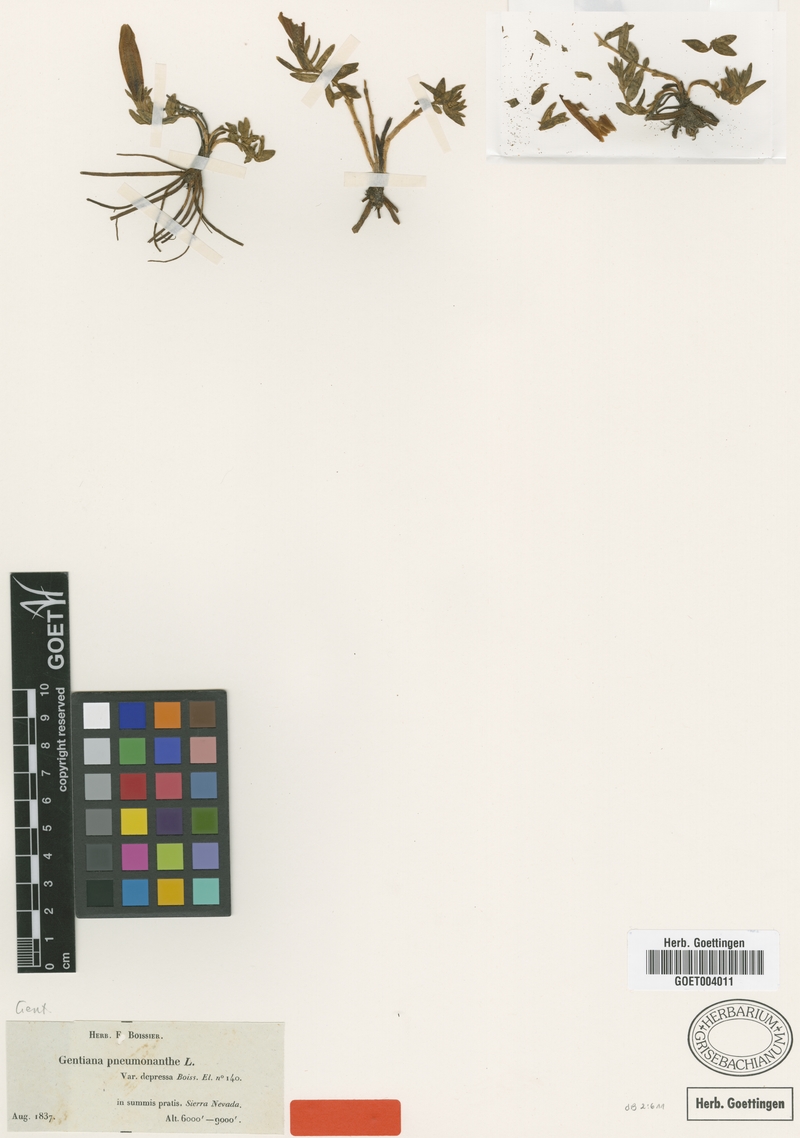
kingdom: Plantae
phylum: Tracheophyta
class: Magnoliopsida
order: Gentianales
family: Gentianaceae
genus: Gentiana
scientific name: Gentiana pneumonanthe
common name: Marsh gentian
